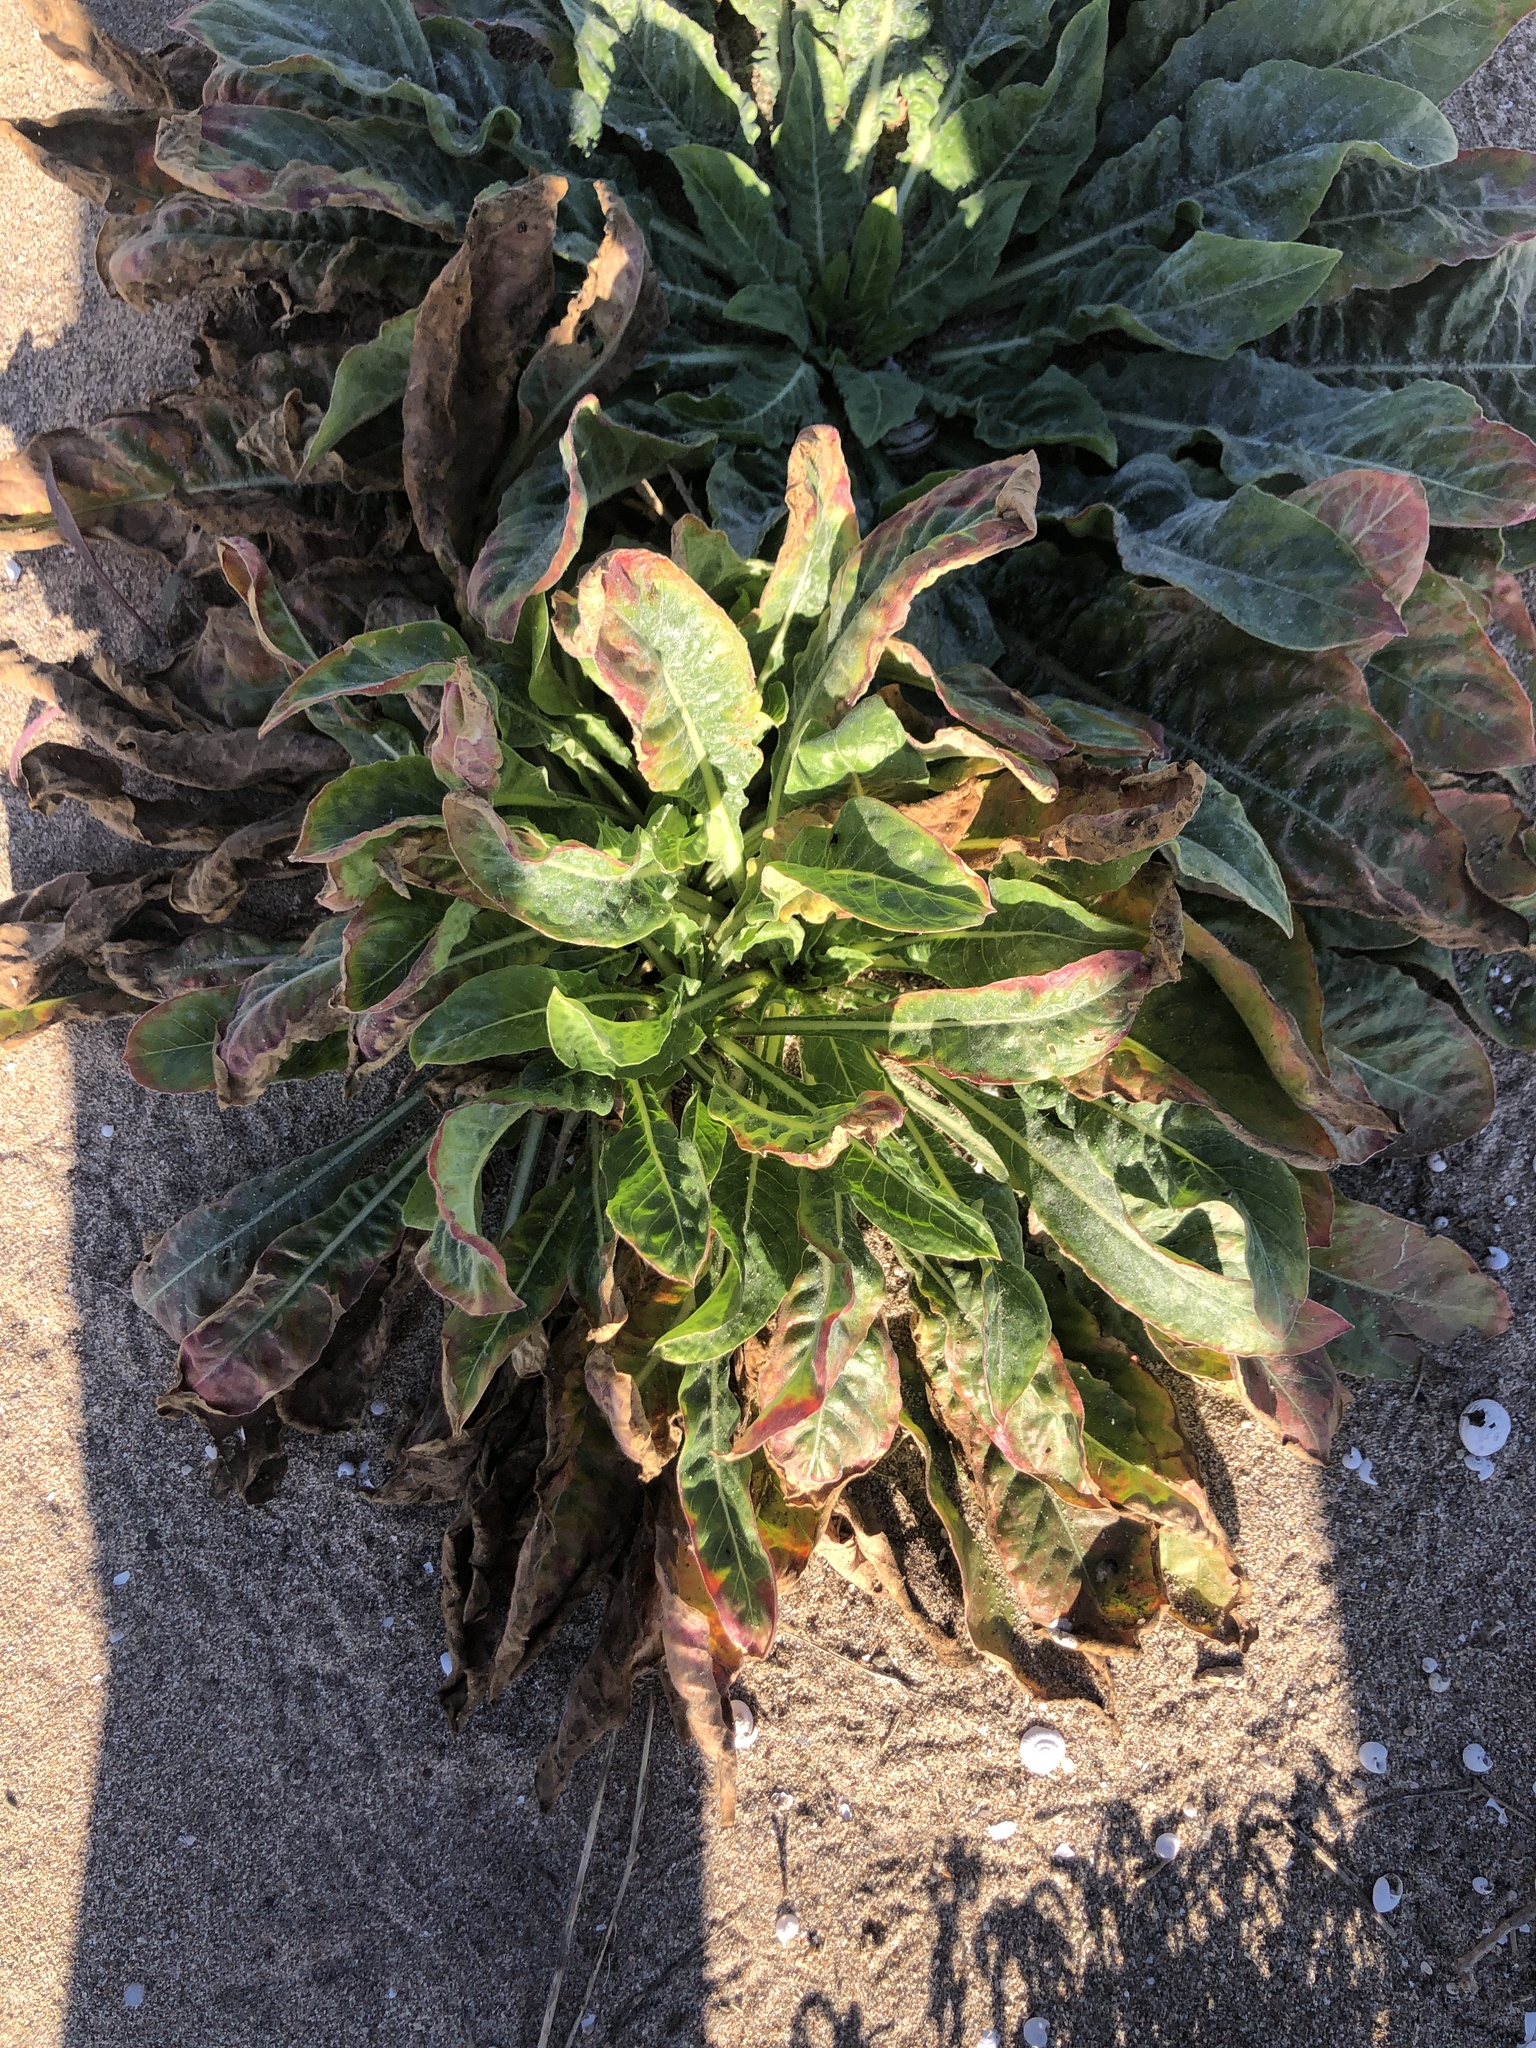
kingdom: Plantae
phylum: Tracheophyta
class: Magnoliopsida
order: Myrtales
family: Onagraceae
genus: Oenothera
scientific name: Oenothera glazioviana
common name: Large-flowered evening-primrose
